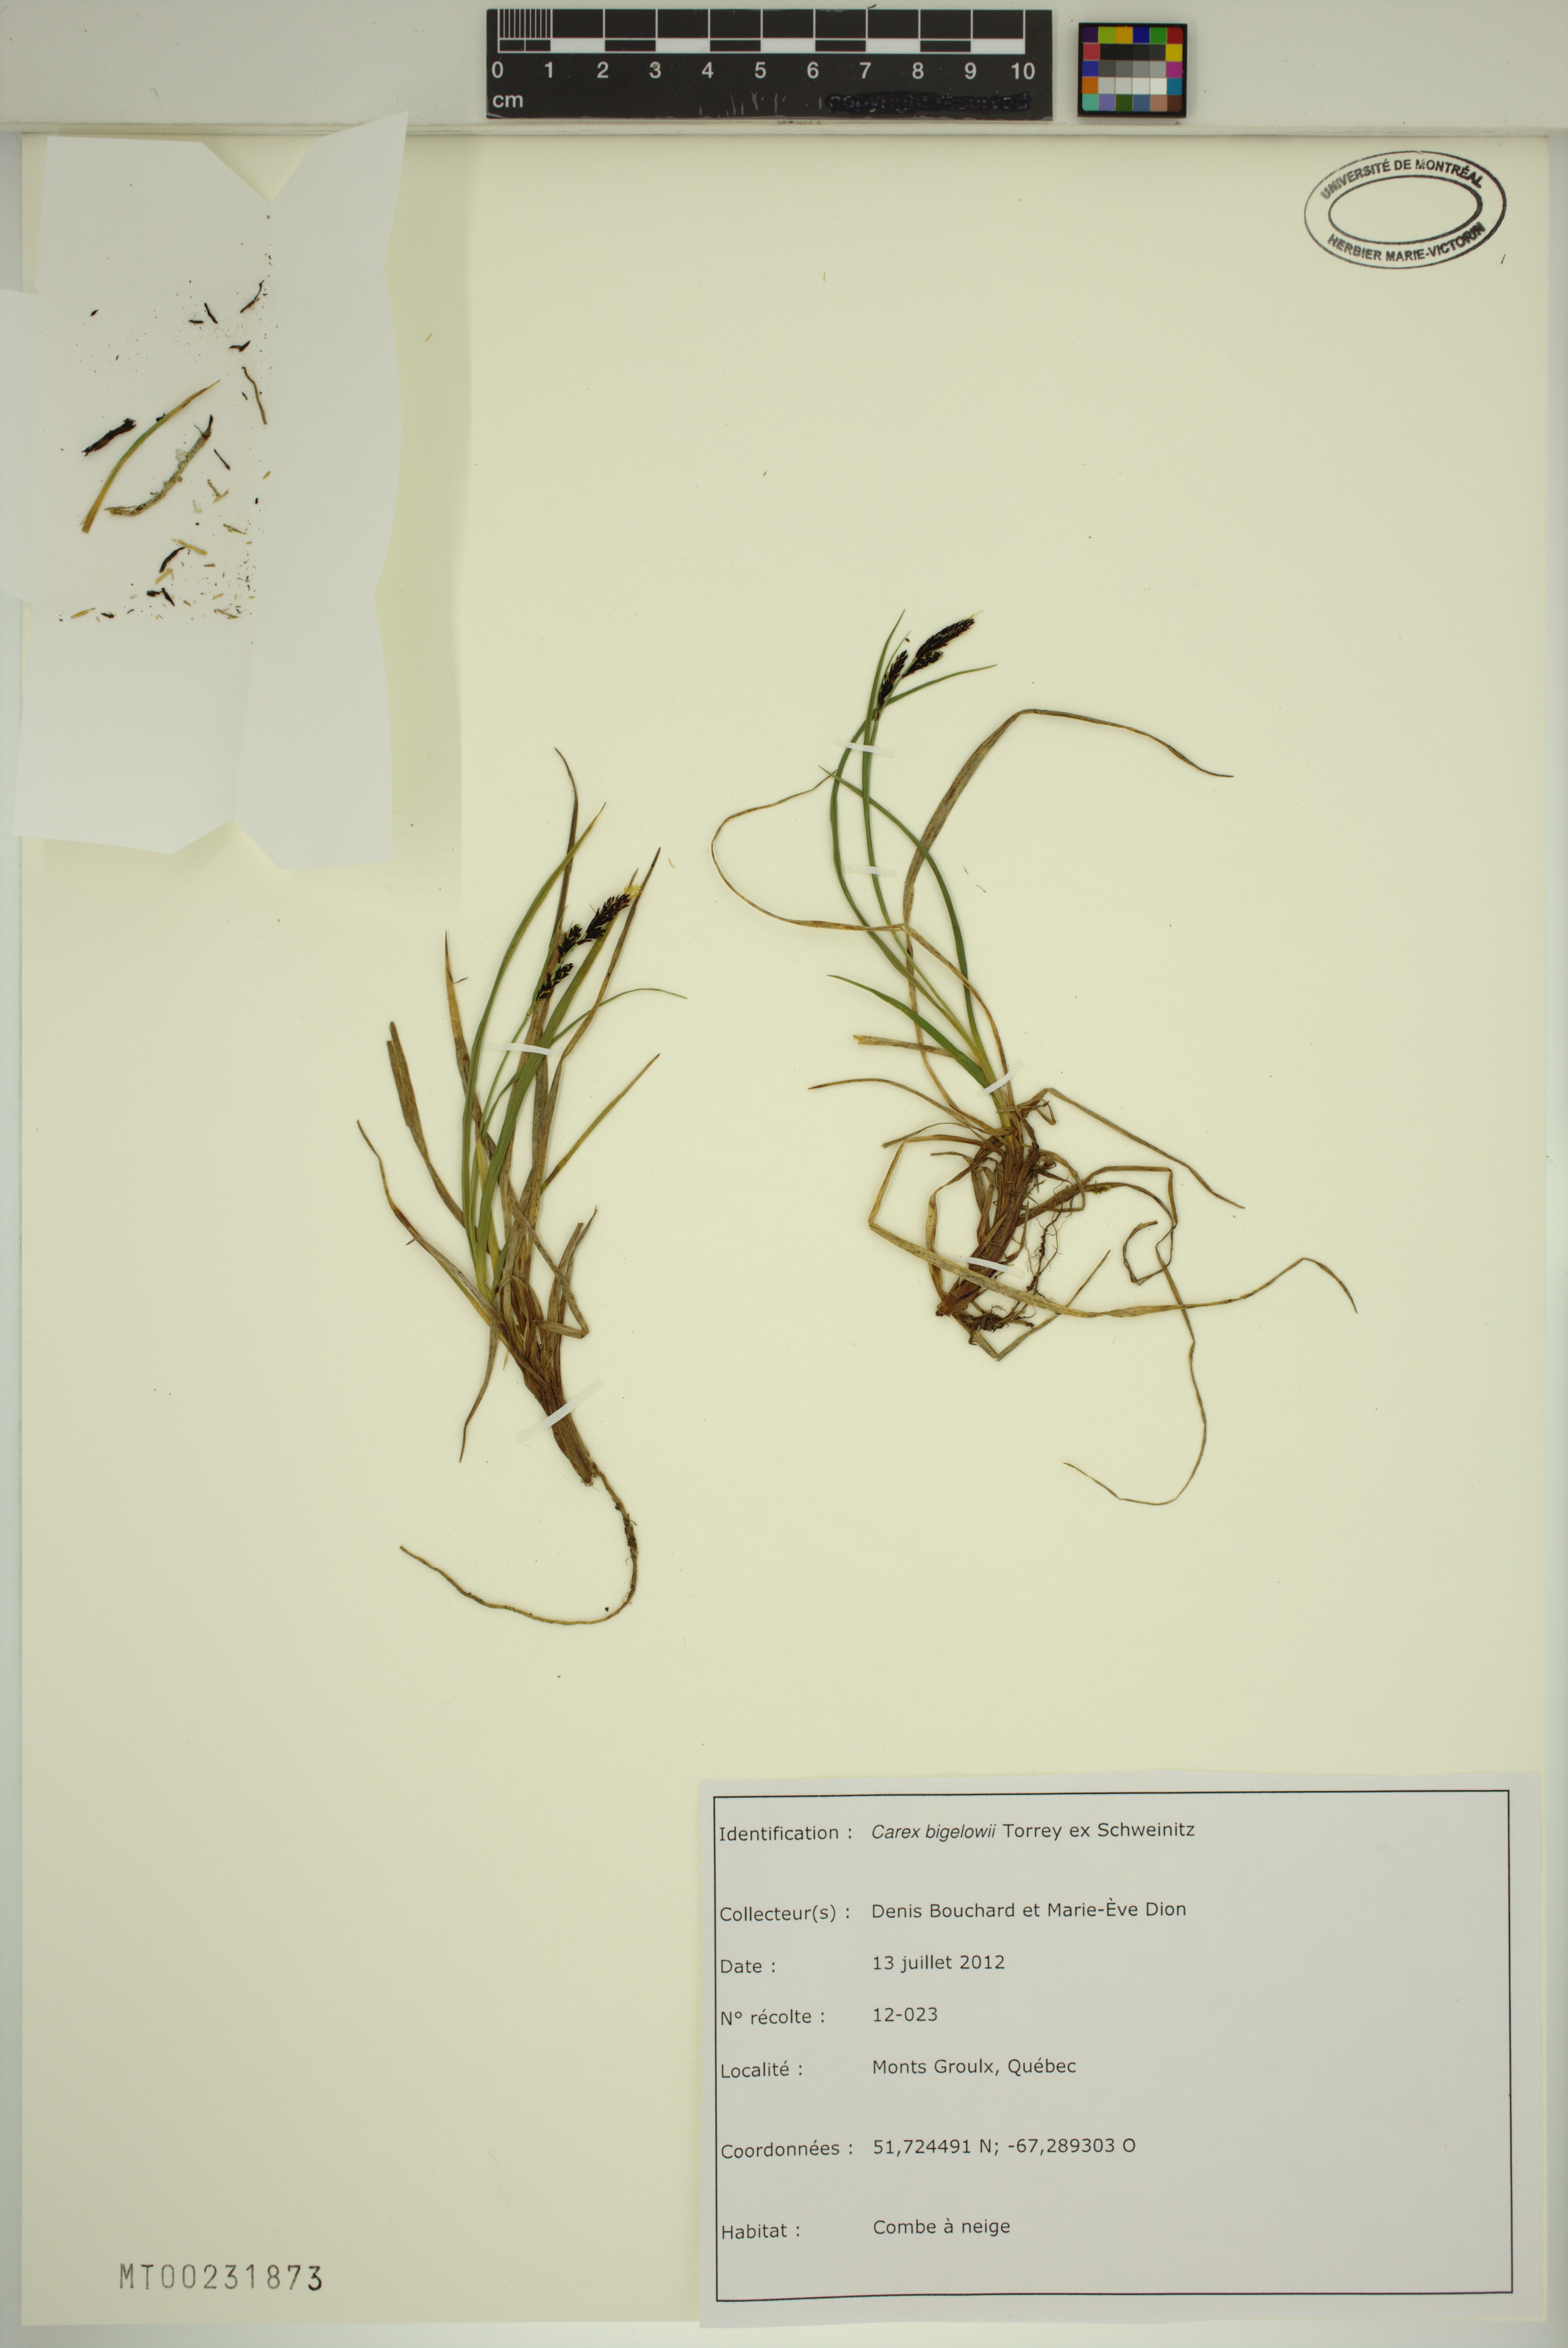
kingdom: Plantae
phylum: Tracheophyta
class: Liliopsida
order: Poales
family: Cyperaceae
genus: Carex
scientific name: Carex bigelowii
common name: Stiff sedge
